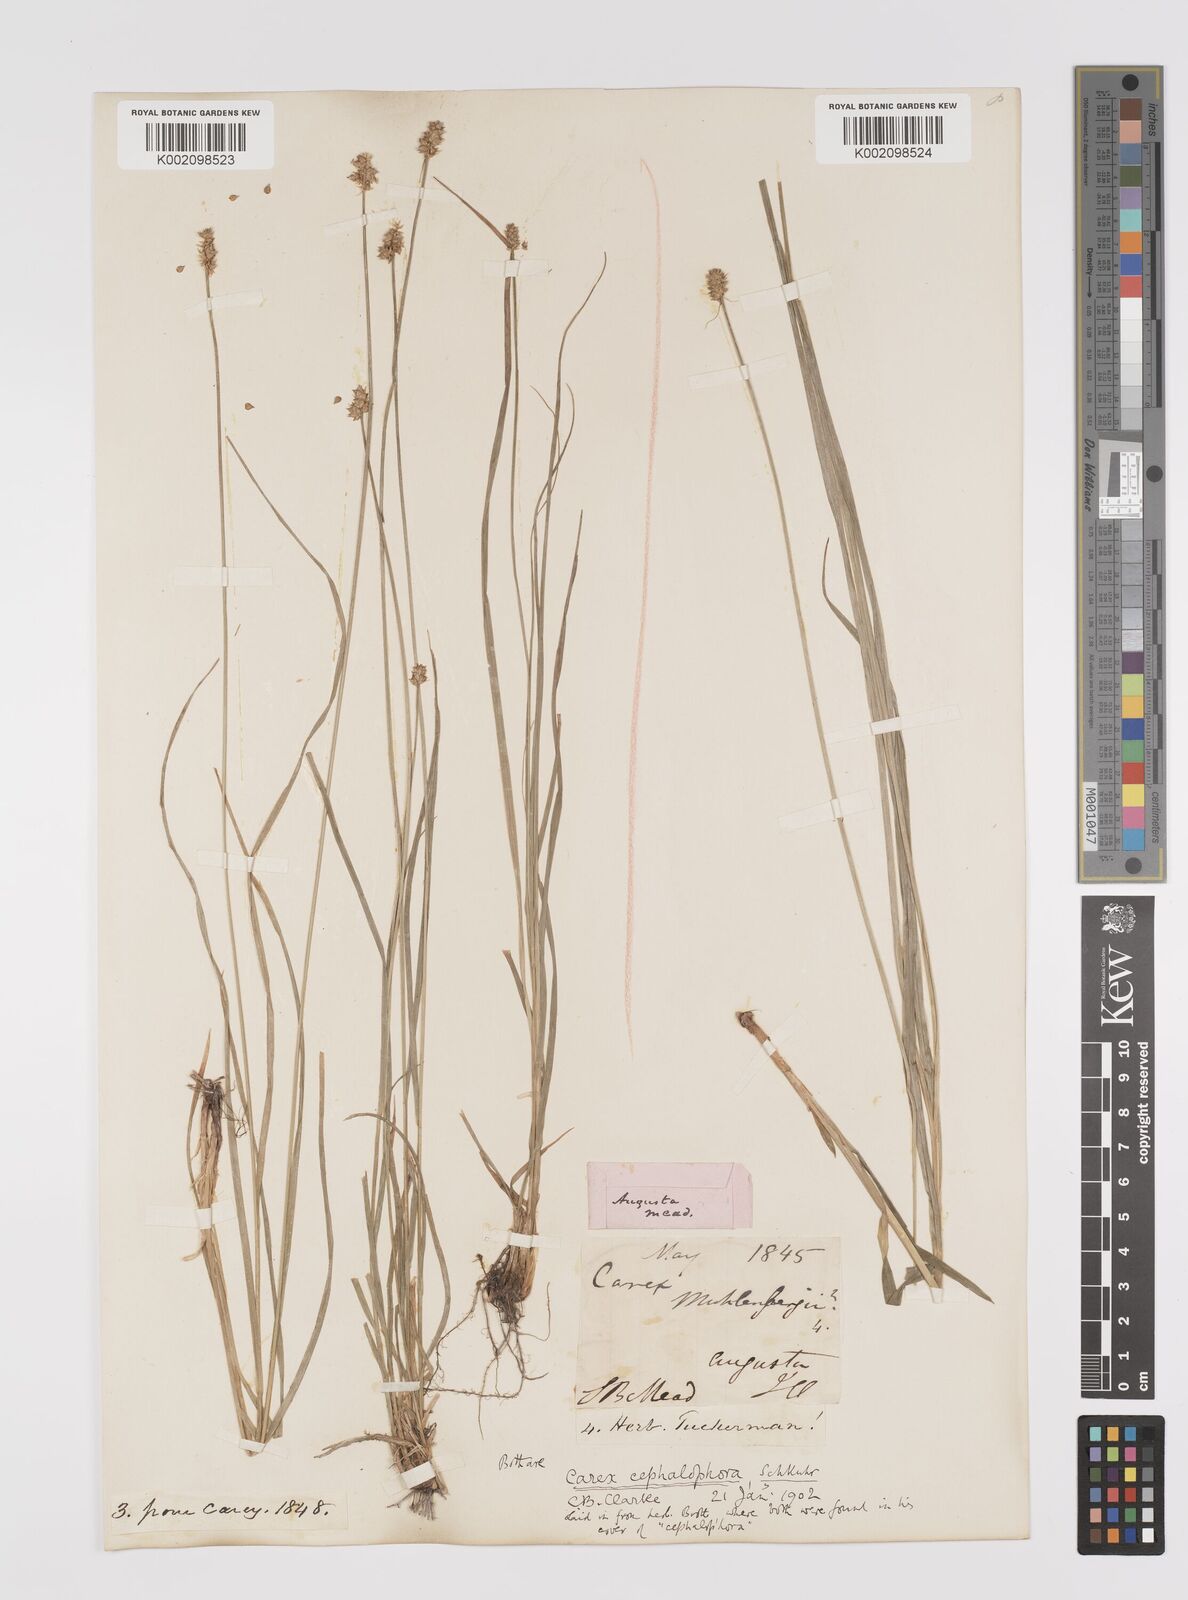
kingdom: Plantae
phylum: Tracheophyta
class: Liliopsida
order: Poales
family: Cyperaceae
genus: Carex
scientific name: Carex cephalophora
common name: Oval-headed sedge
